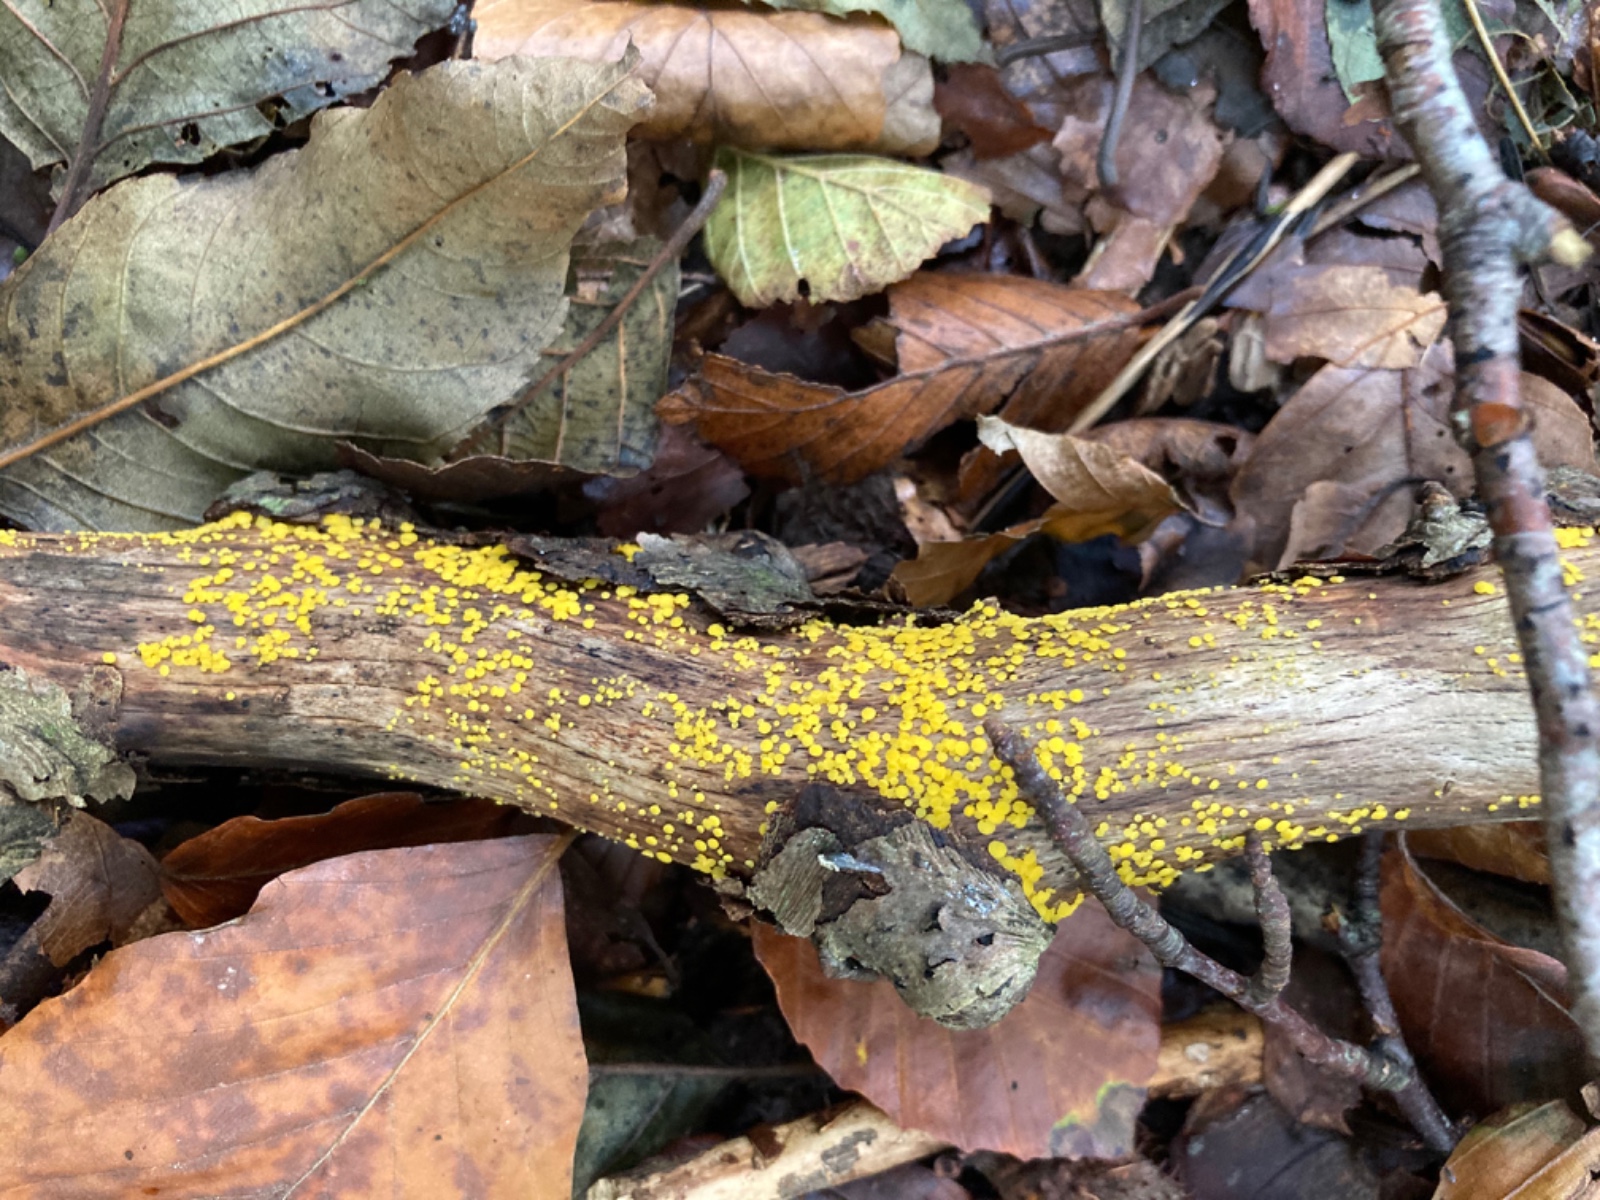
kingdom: Fungi
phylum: Ascomycota
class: Leotiomycetes
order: Helotiales
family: Pezizellaceae
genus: Calycina
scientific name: Calycina citrina
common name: almindelig gulskive
